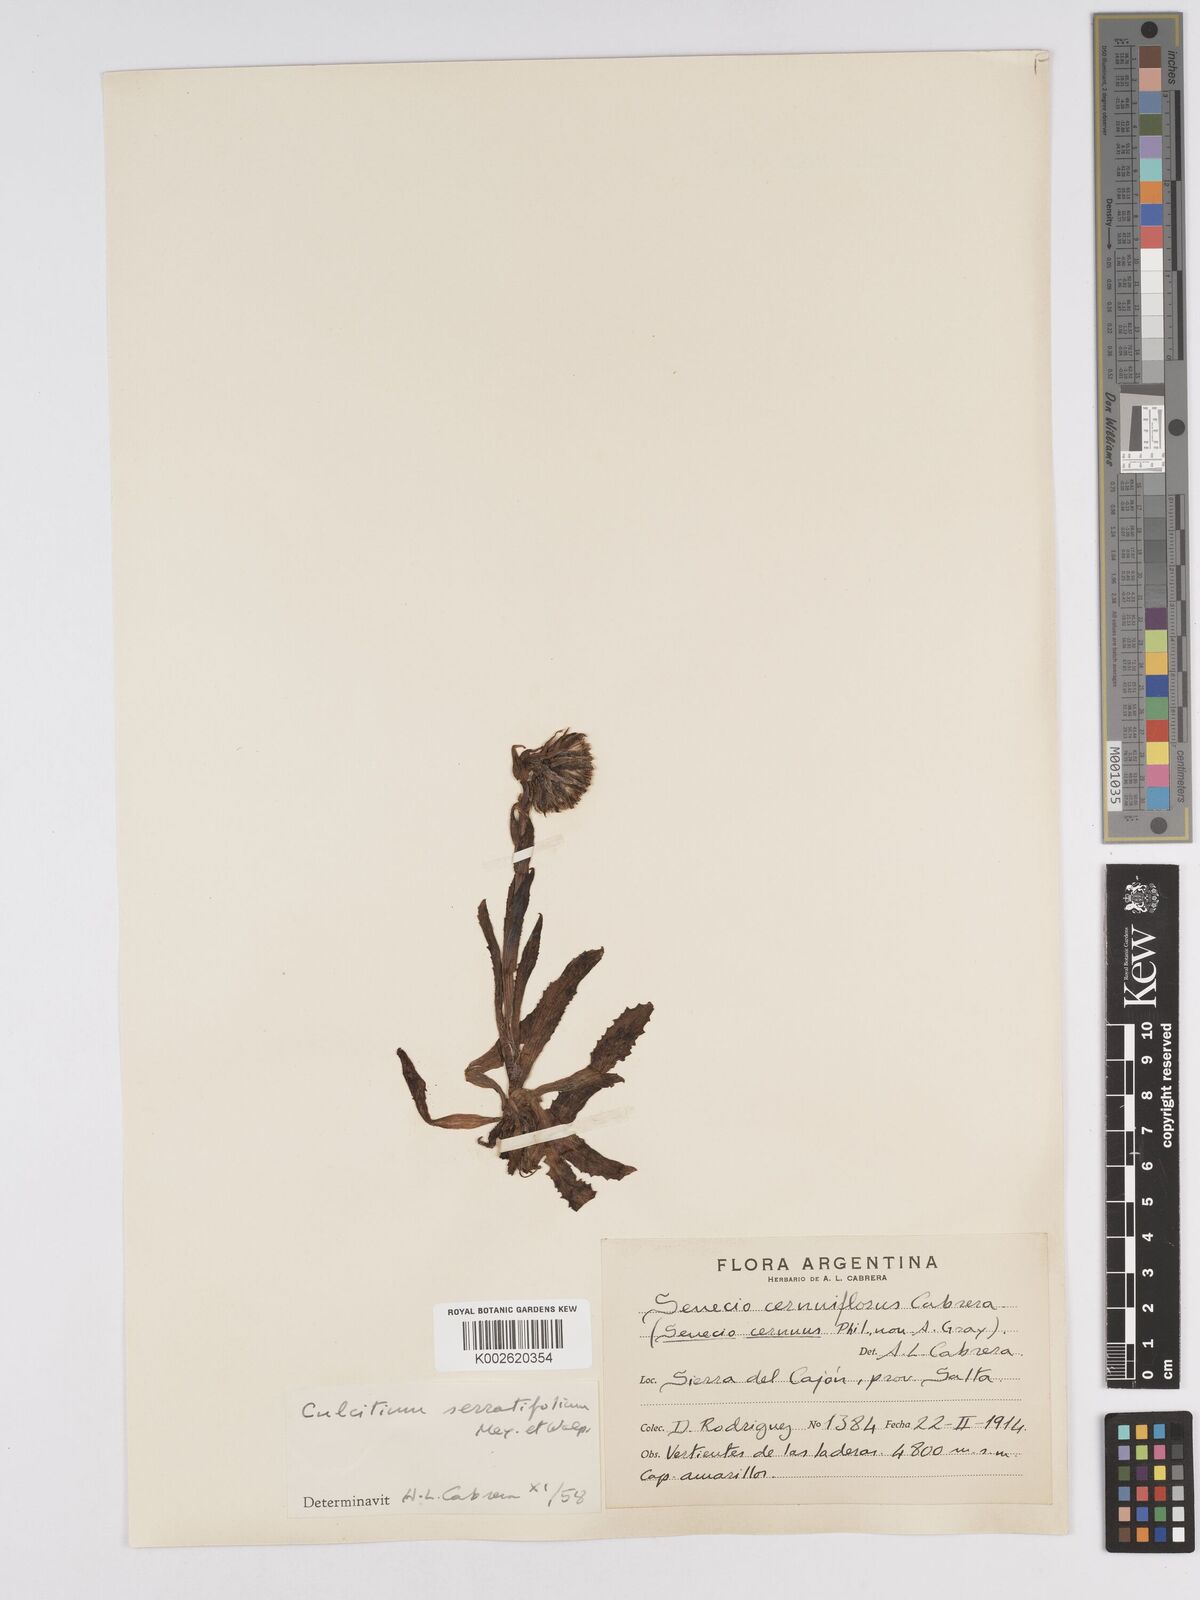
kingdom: Plantae
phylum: Tracheophyta
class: Magnoliopsida
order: Asterales
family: Asteraceae
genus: Senecio
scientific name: Senecio serratifolius
